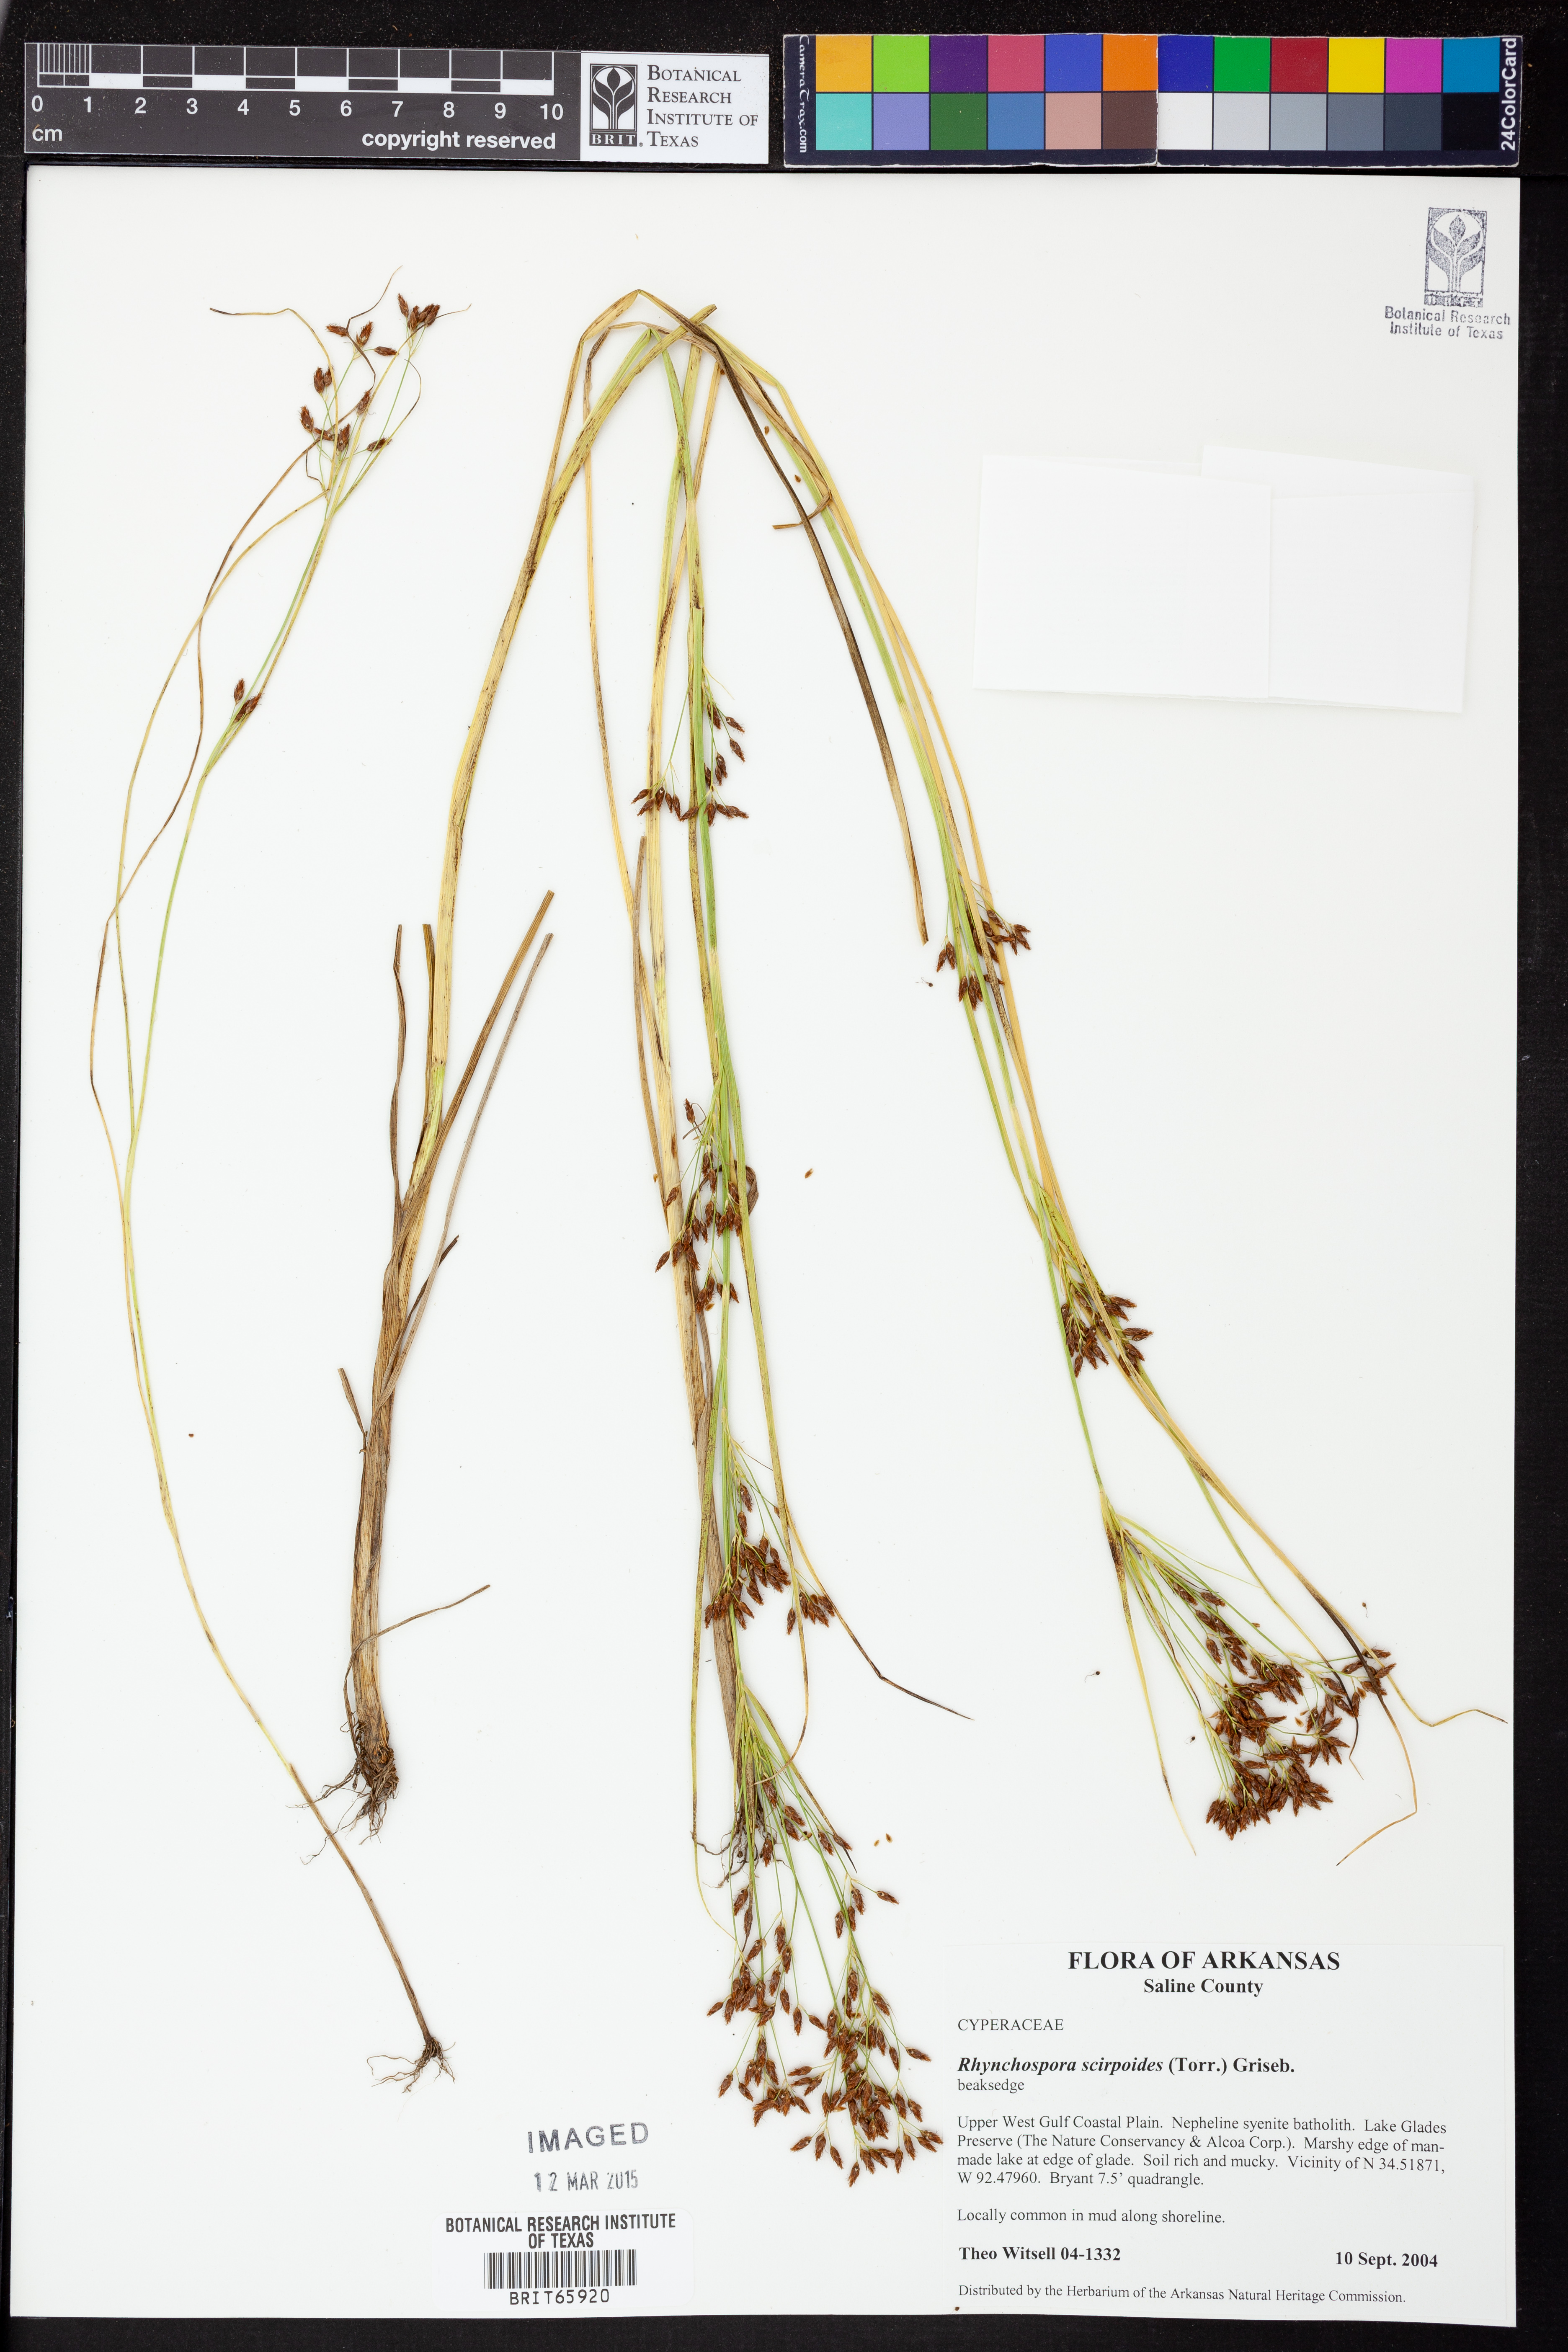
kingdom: Plantae
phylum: Tracheophyta
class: Liliopsida
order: Poales
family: Cyperaceae
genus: Rhynchospora
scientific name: Rhynchospora scirpoides
